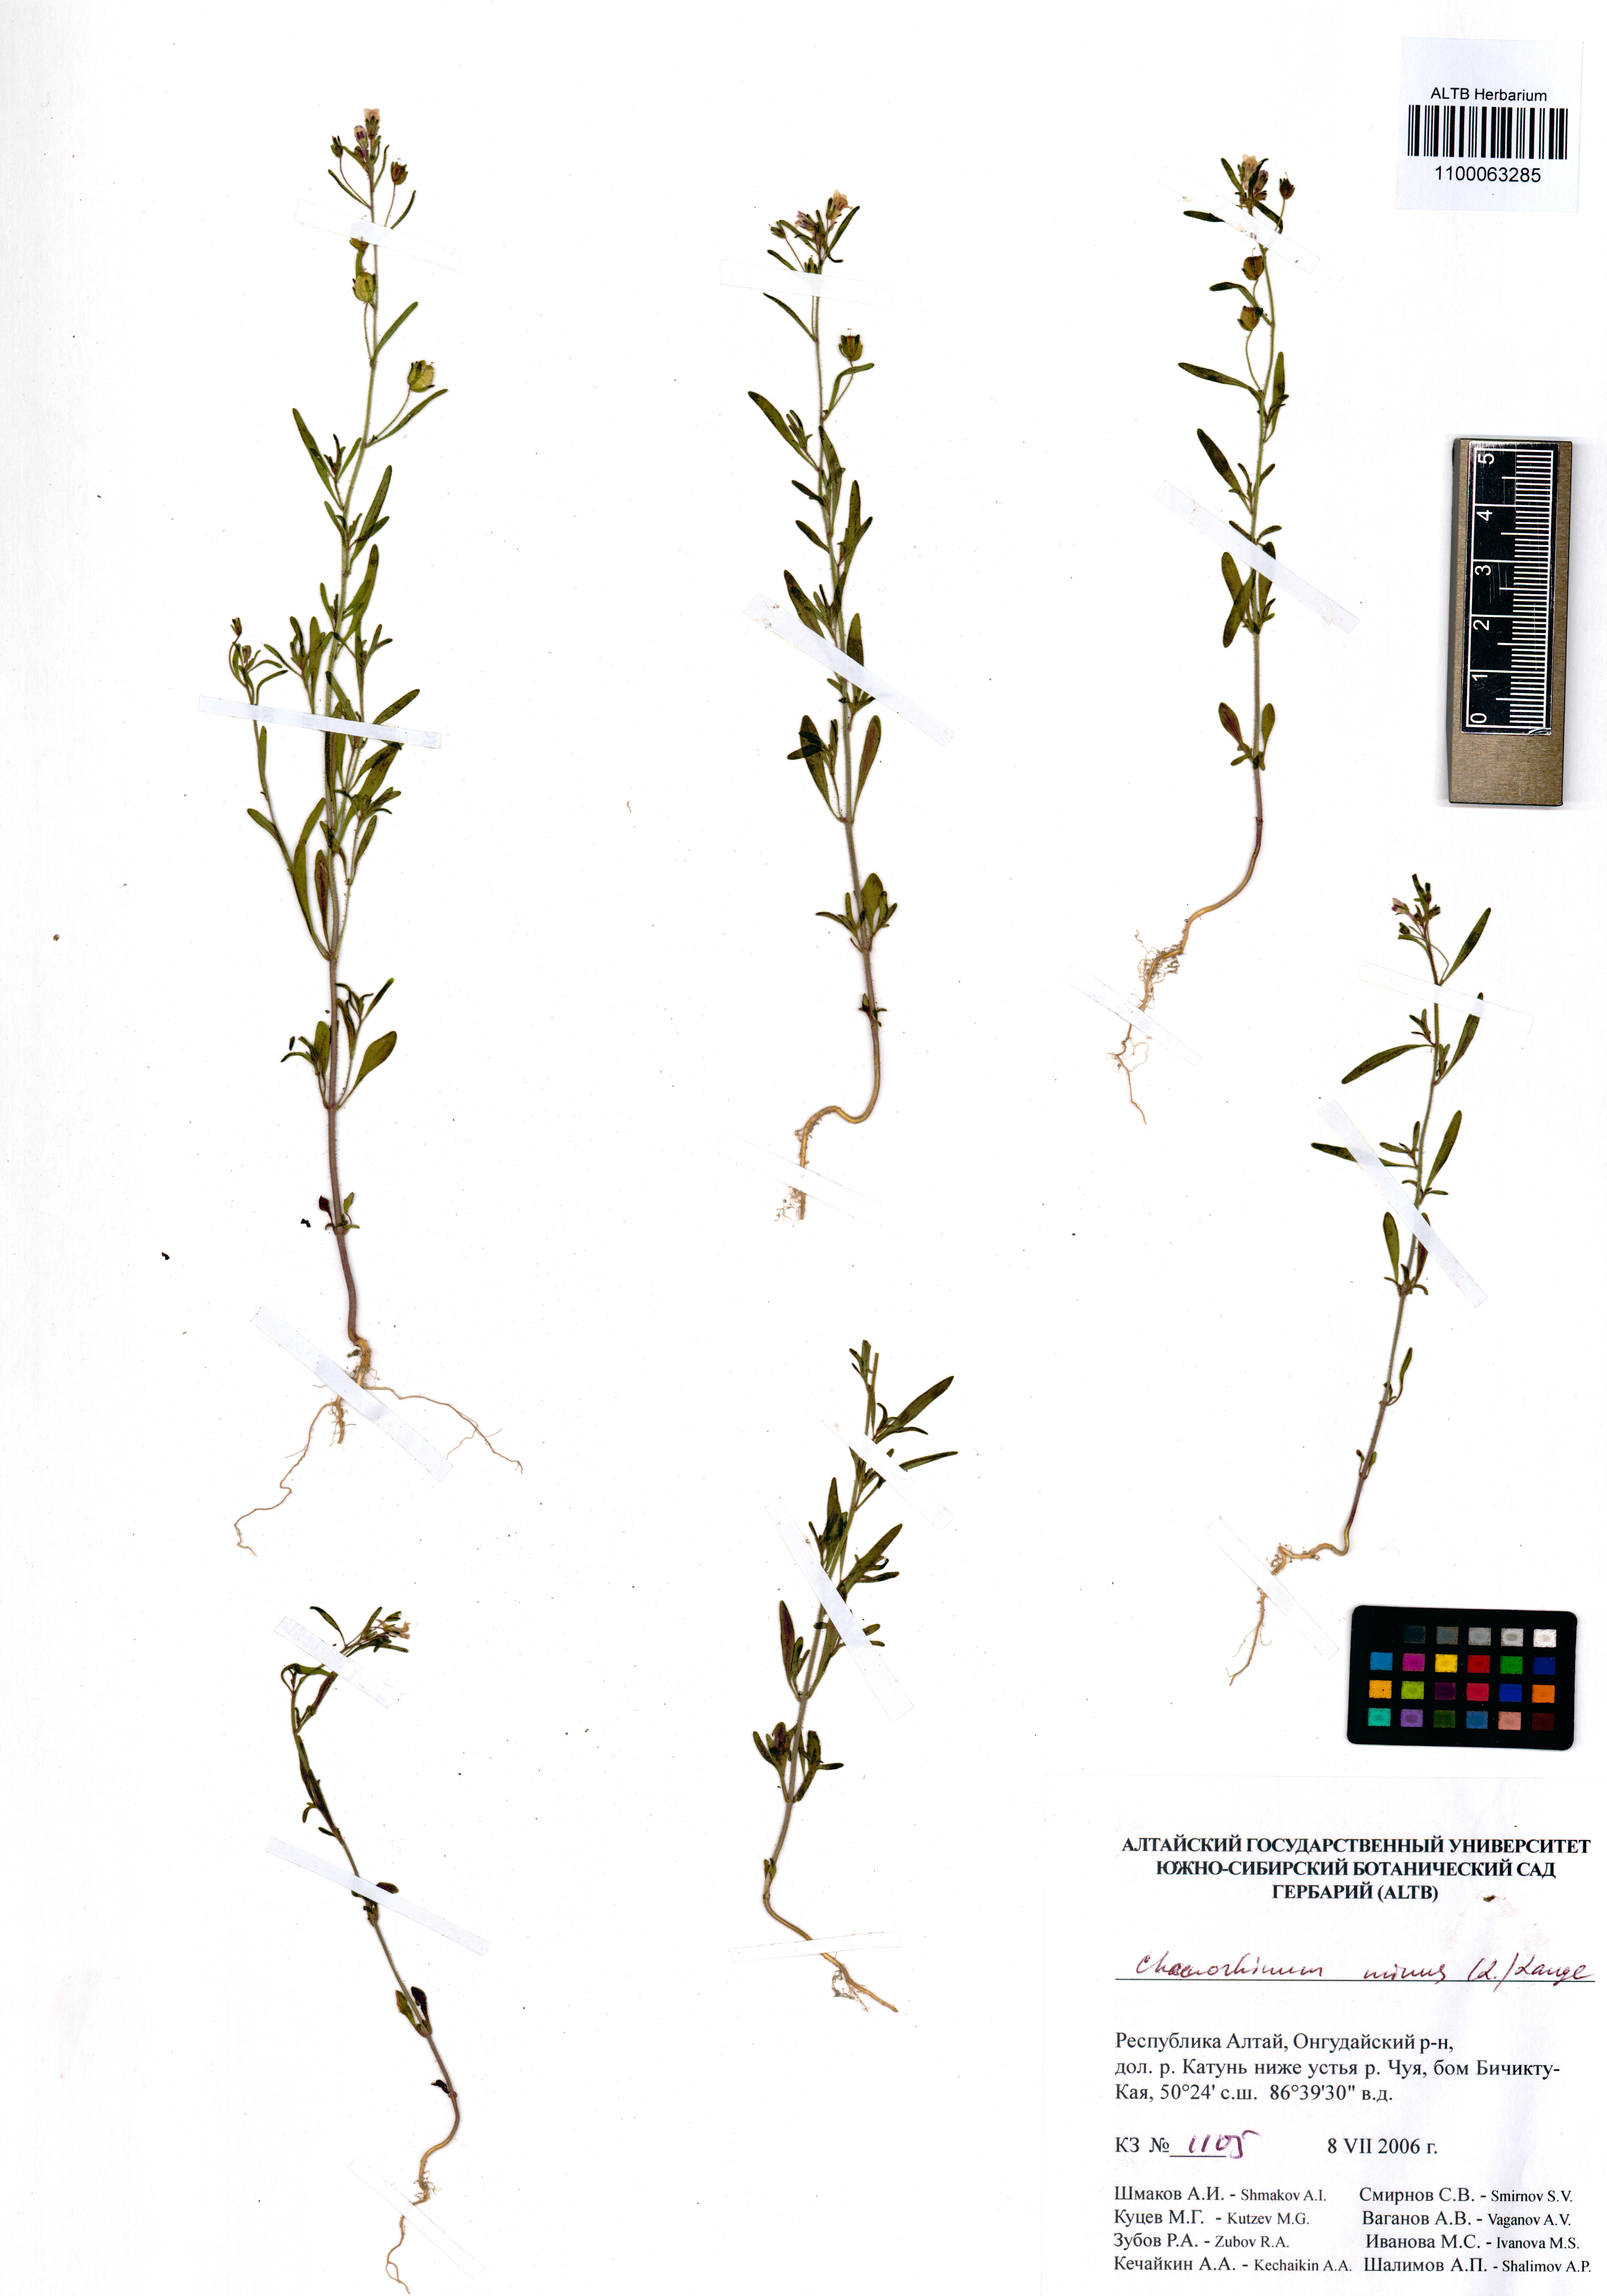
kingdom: Plantae
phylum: Tracheophyta
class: Magnoliopsida
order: Lamiales
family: Plantaginaceae
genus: Chaenorhinum
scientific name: Chaenorhinum minus
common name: Dwarf snapdragon
